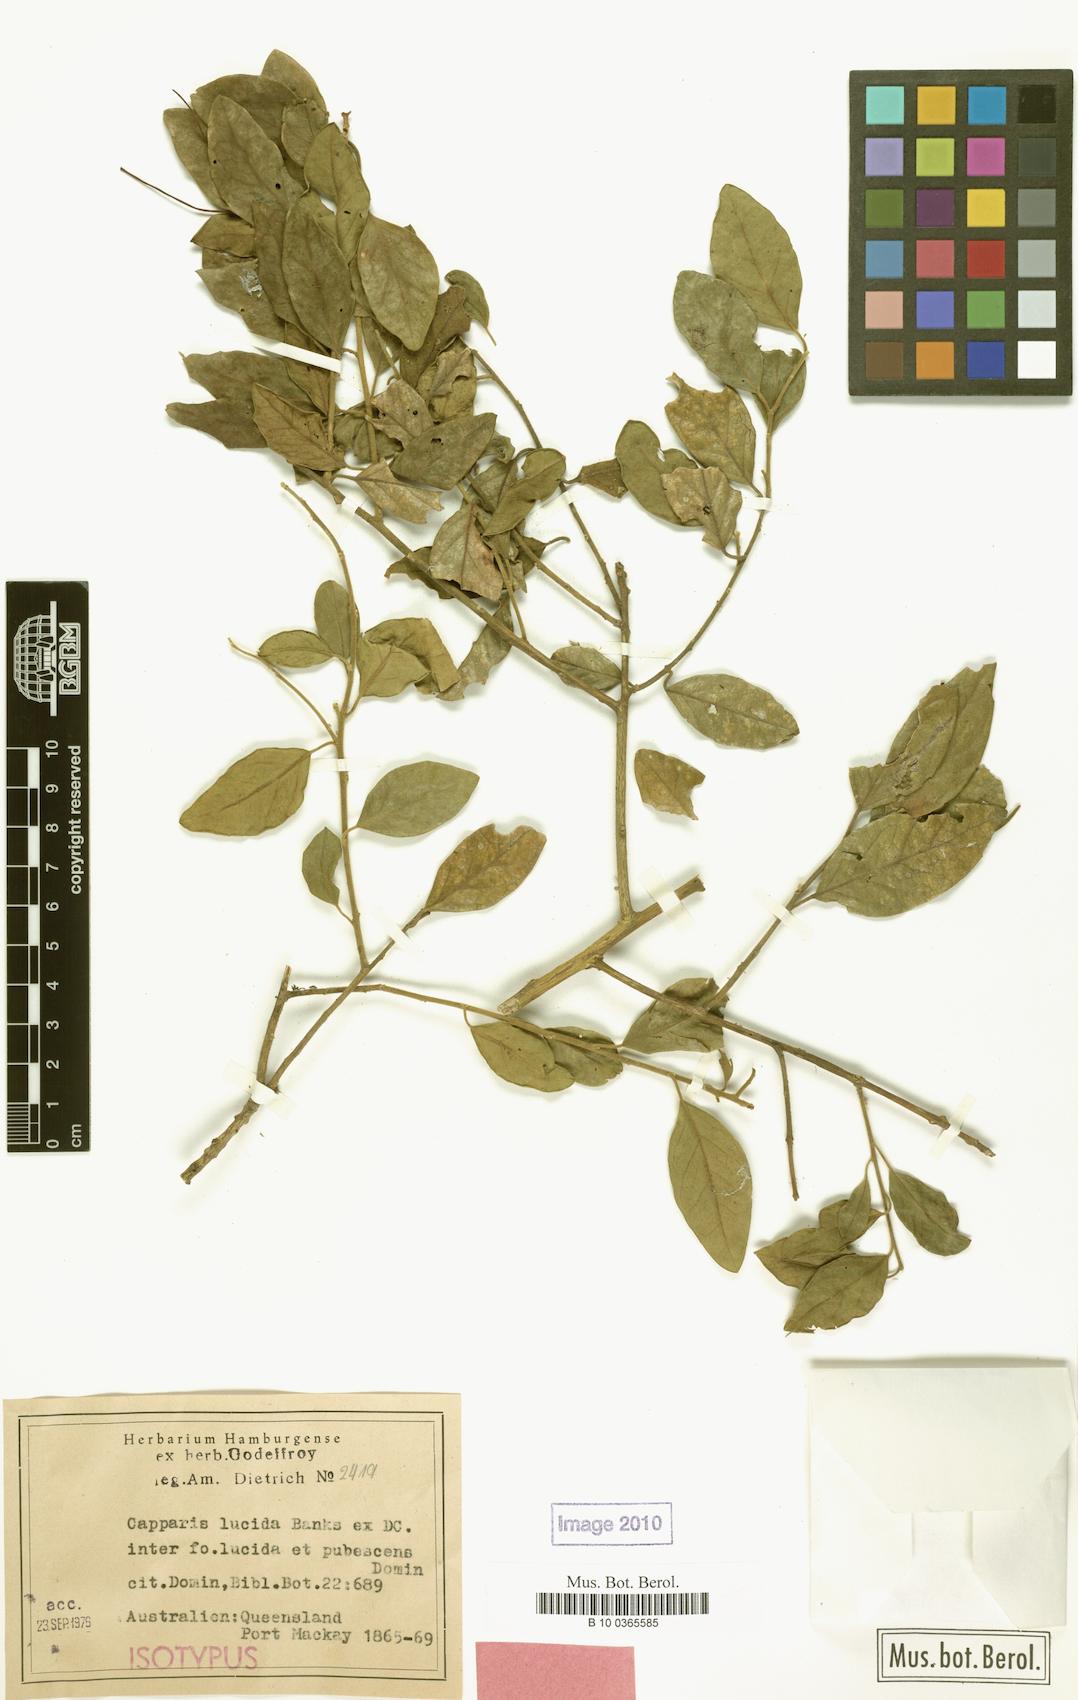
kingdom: Plantae
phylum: Tracheophyta
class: Magnoliopsida
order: Brassicales
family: Capparaceae
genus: Capparis
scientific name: Capparis lucida
